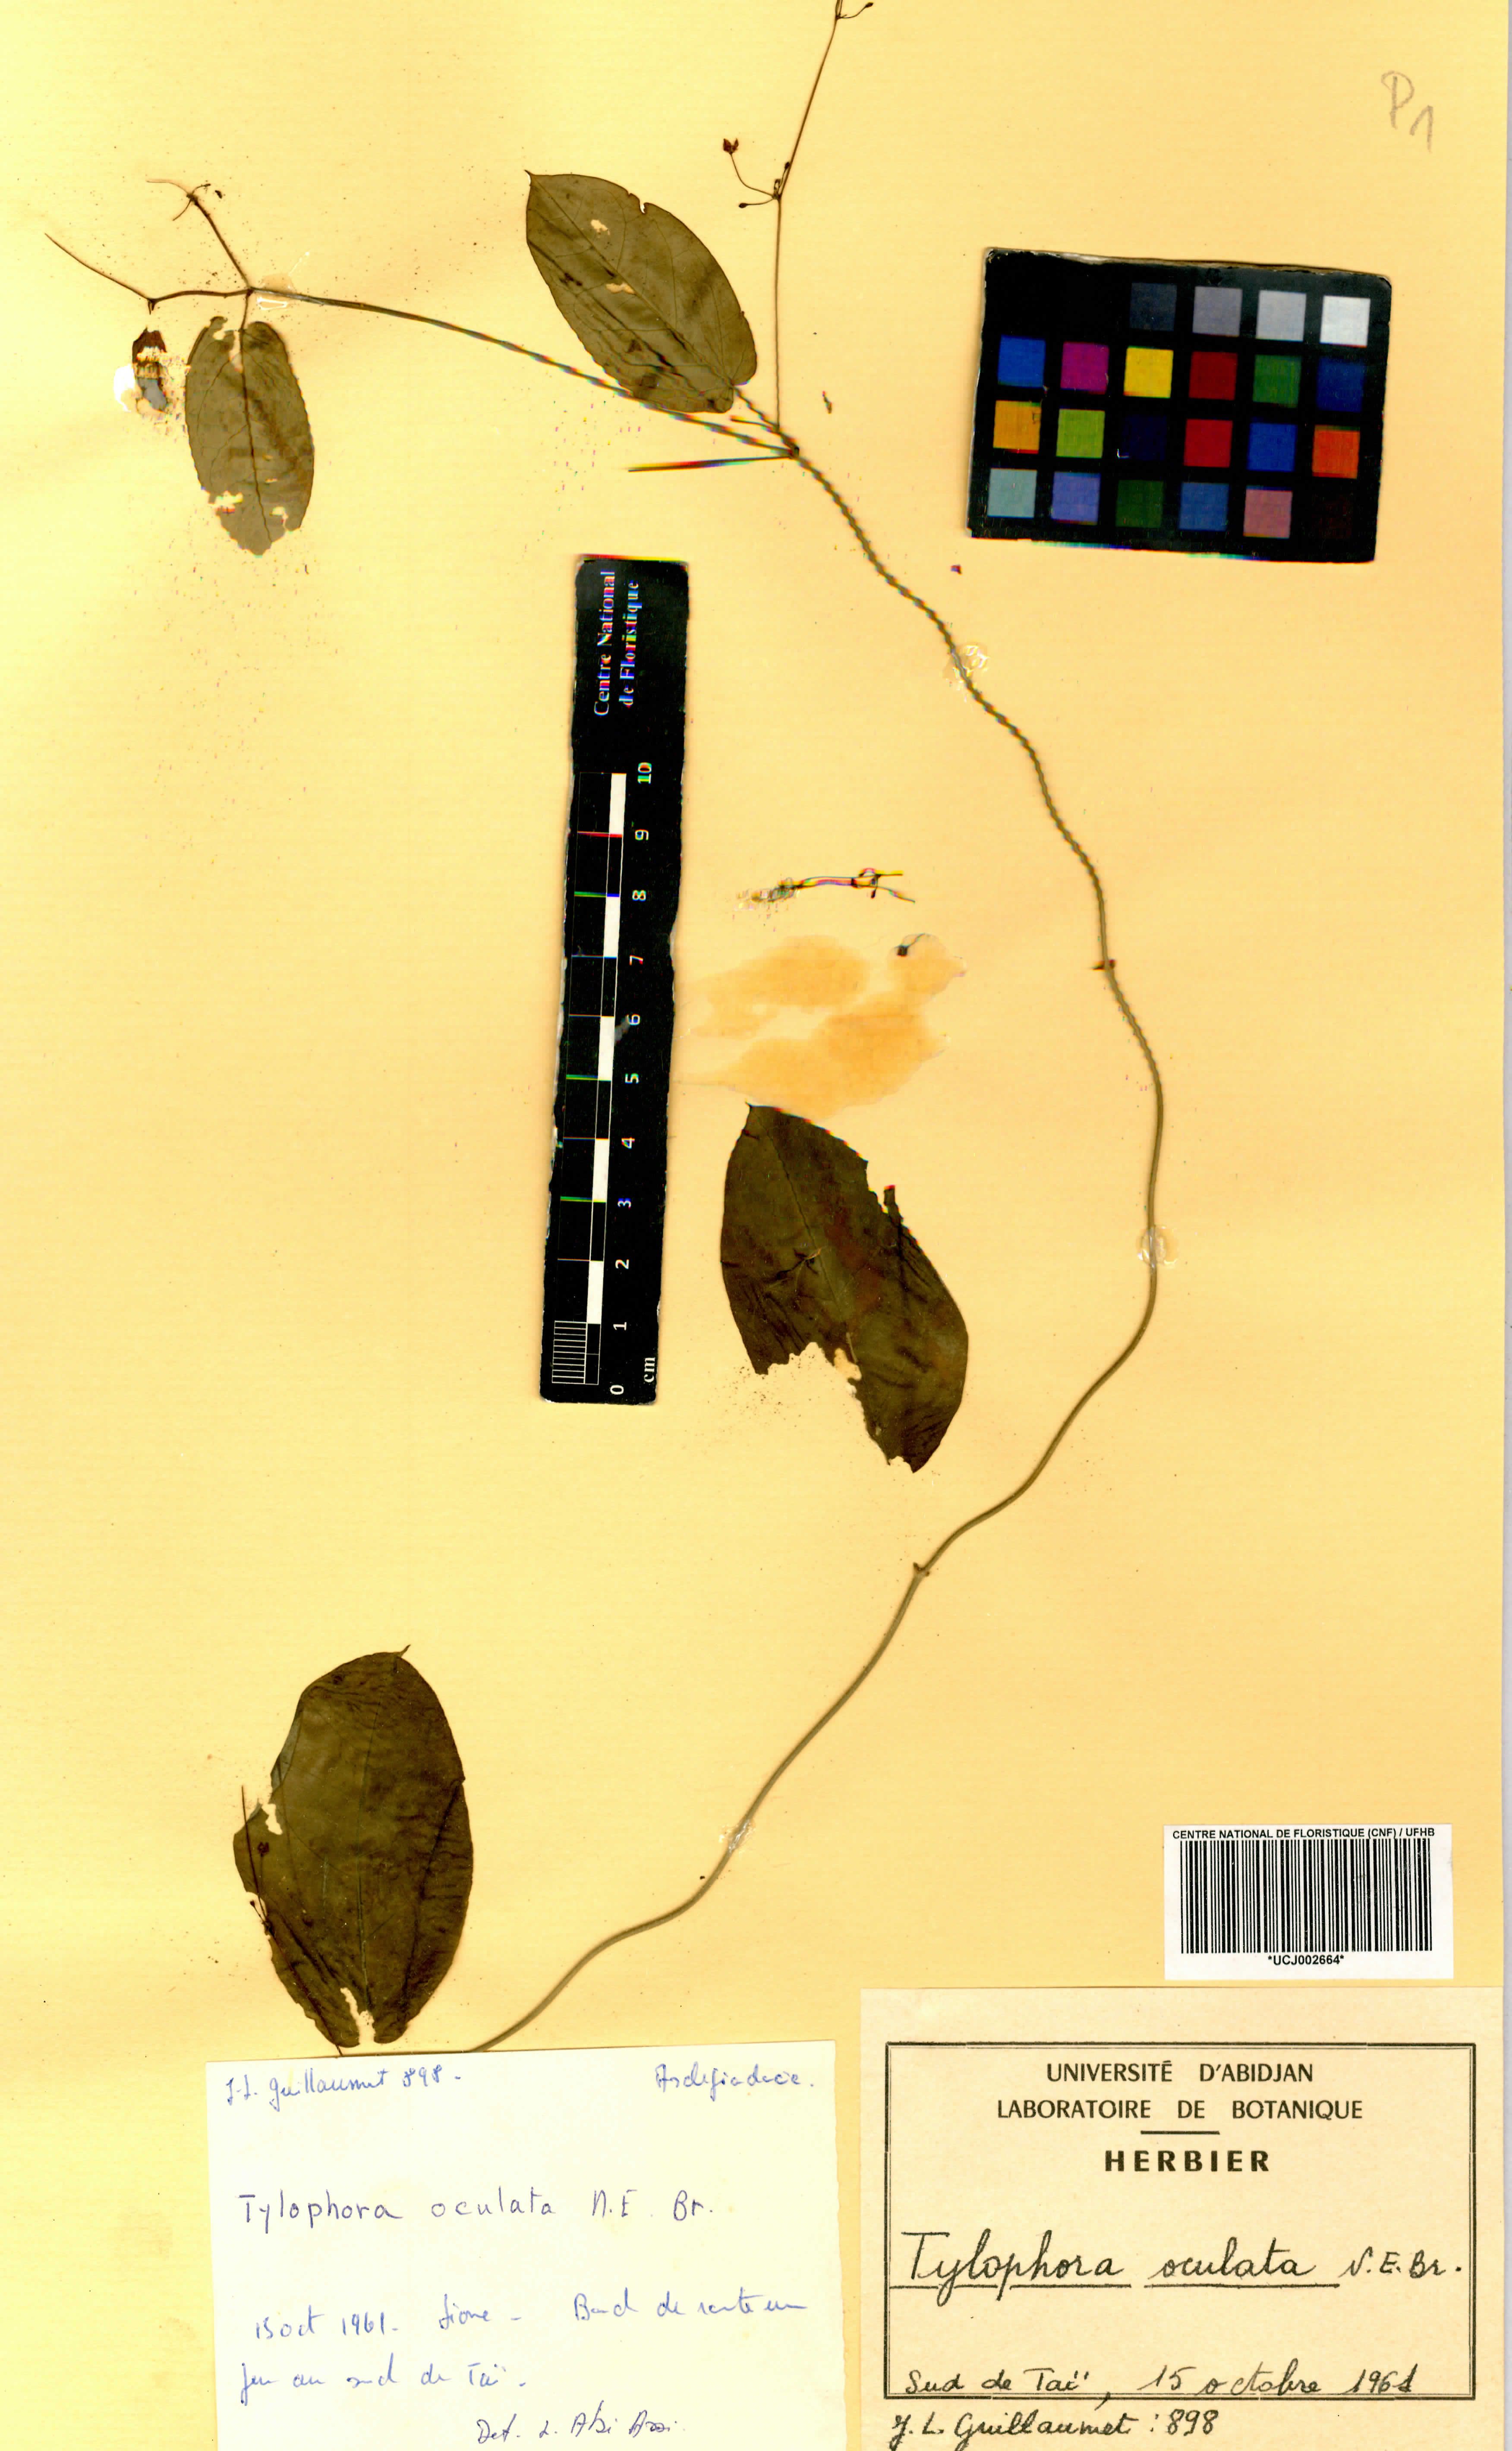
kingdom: Plantae
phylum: Tracheophyta
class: Magnoliopsida
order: Gentianales
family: Apocynaceae
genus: Vincetoxicum
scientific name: Vincetoxicum oculatum
